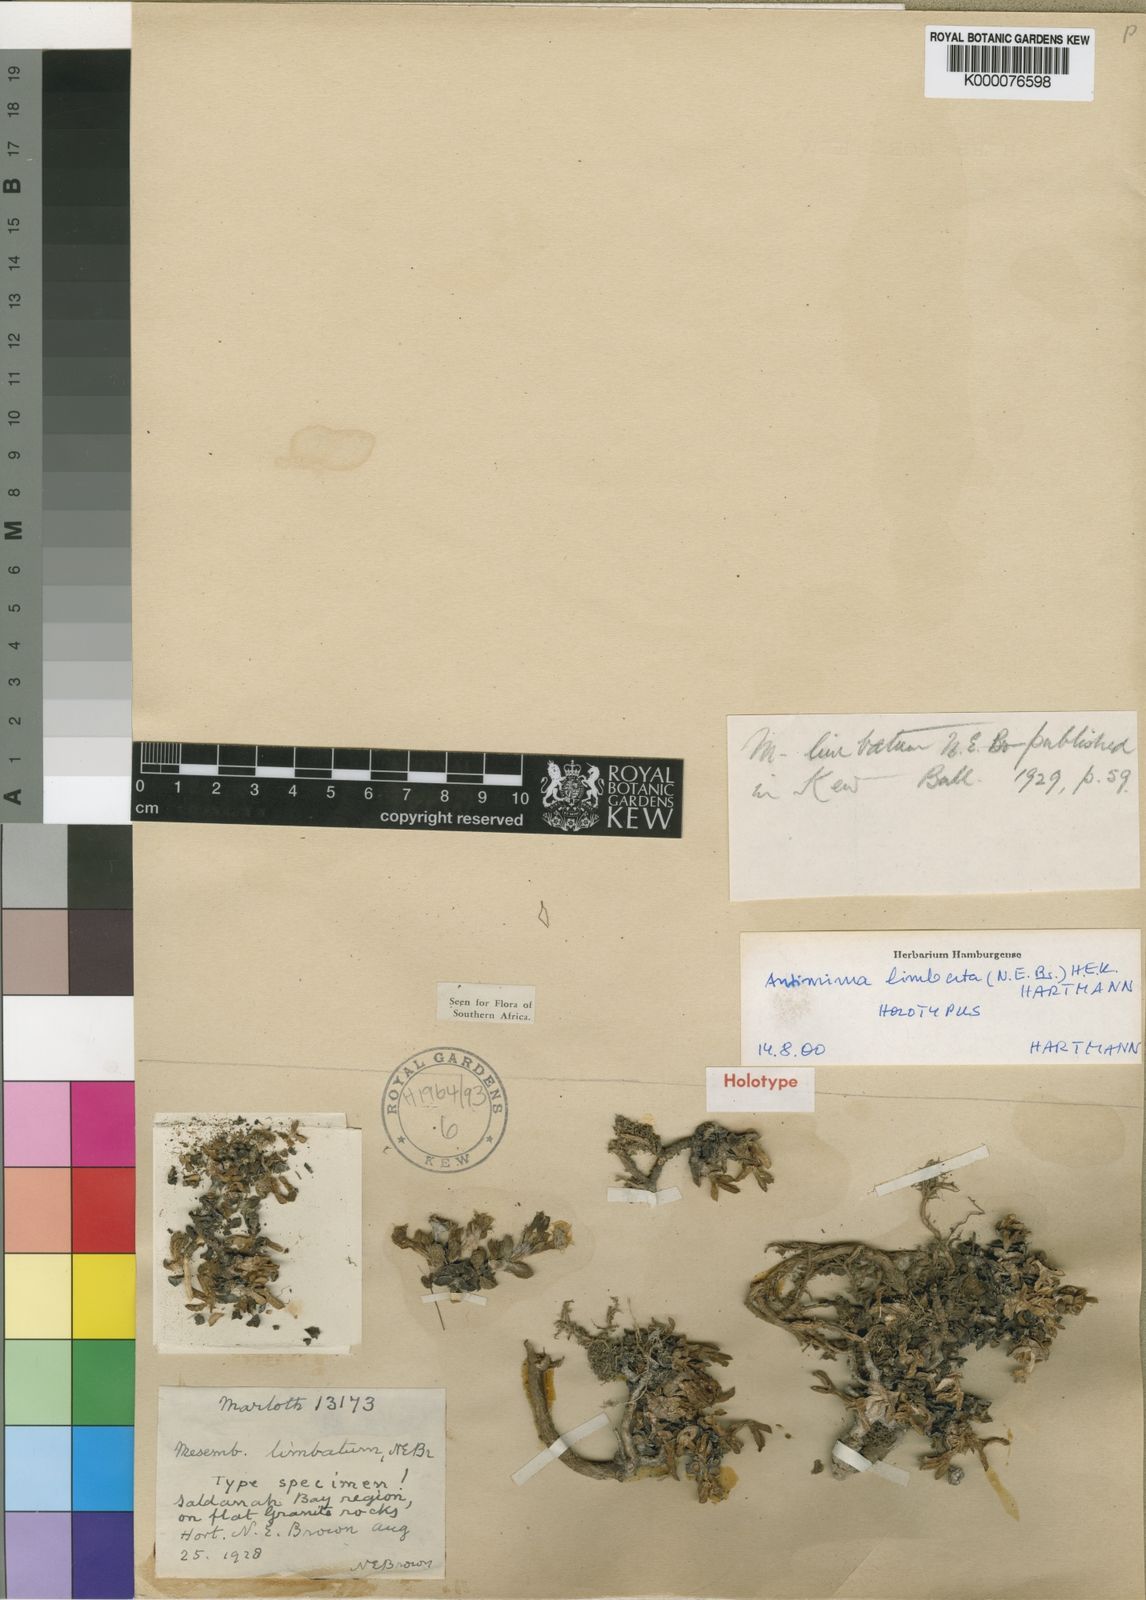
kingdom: Plantae
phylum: Tracheophyta
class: Magnoliopsida
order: Caryophyllales
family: Aizoaceae
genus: Antimima
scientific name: Antimima limbata
